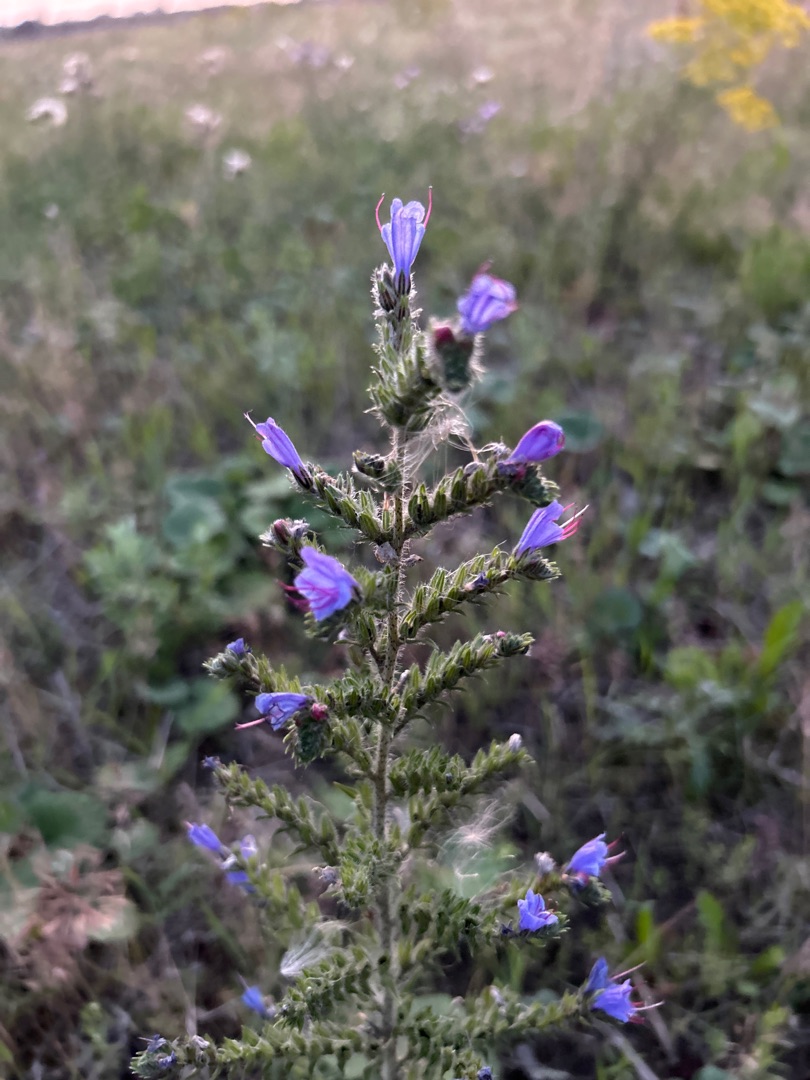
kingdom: Plantae
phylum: Tracheophyta
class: Magnoliopsida
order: Boraginales
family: Boraginaceae
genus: Echium
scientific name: Echium vulgare
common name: Slangehoved
